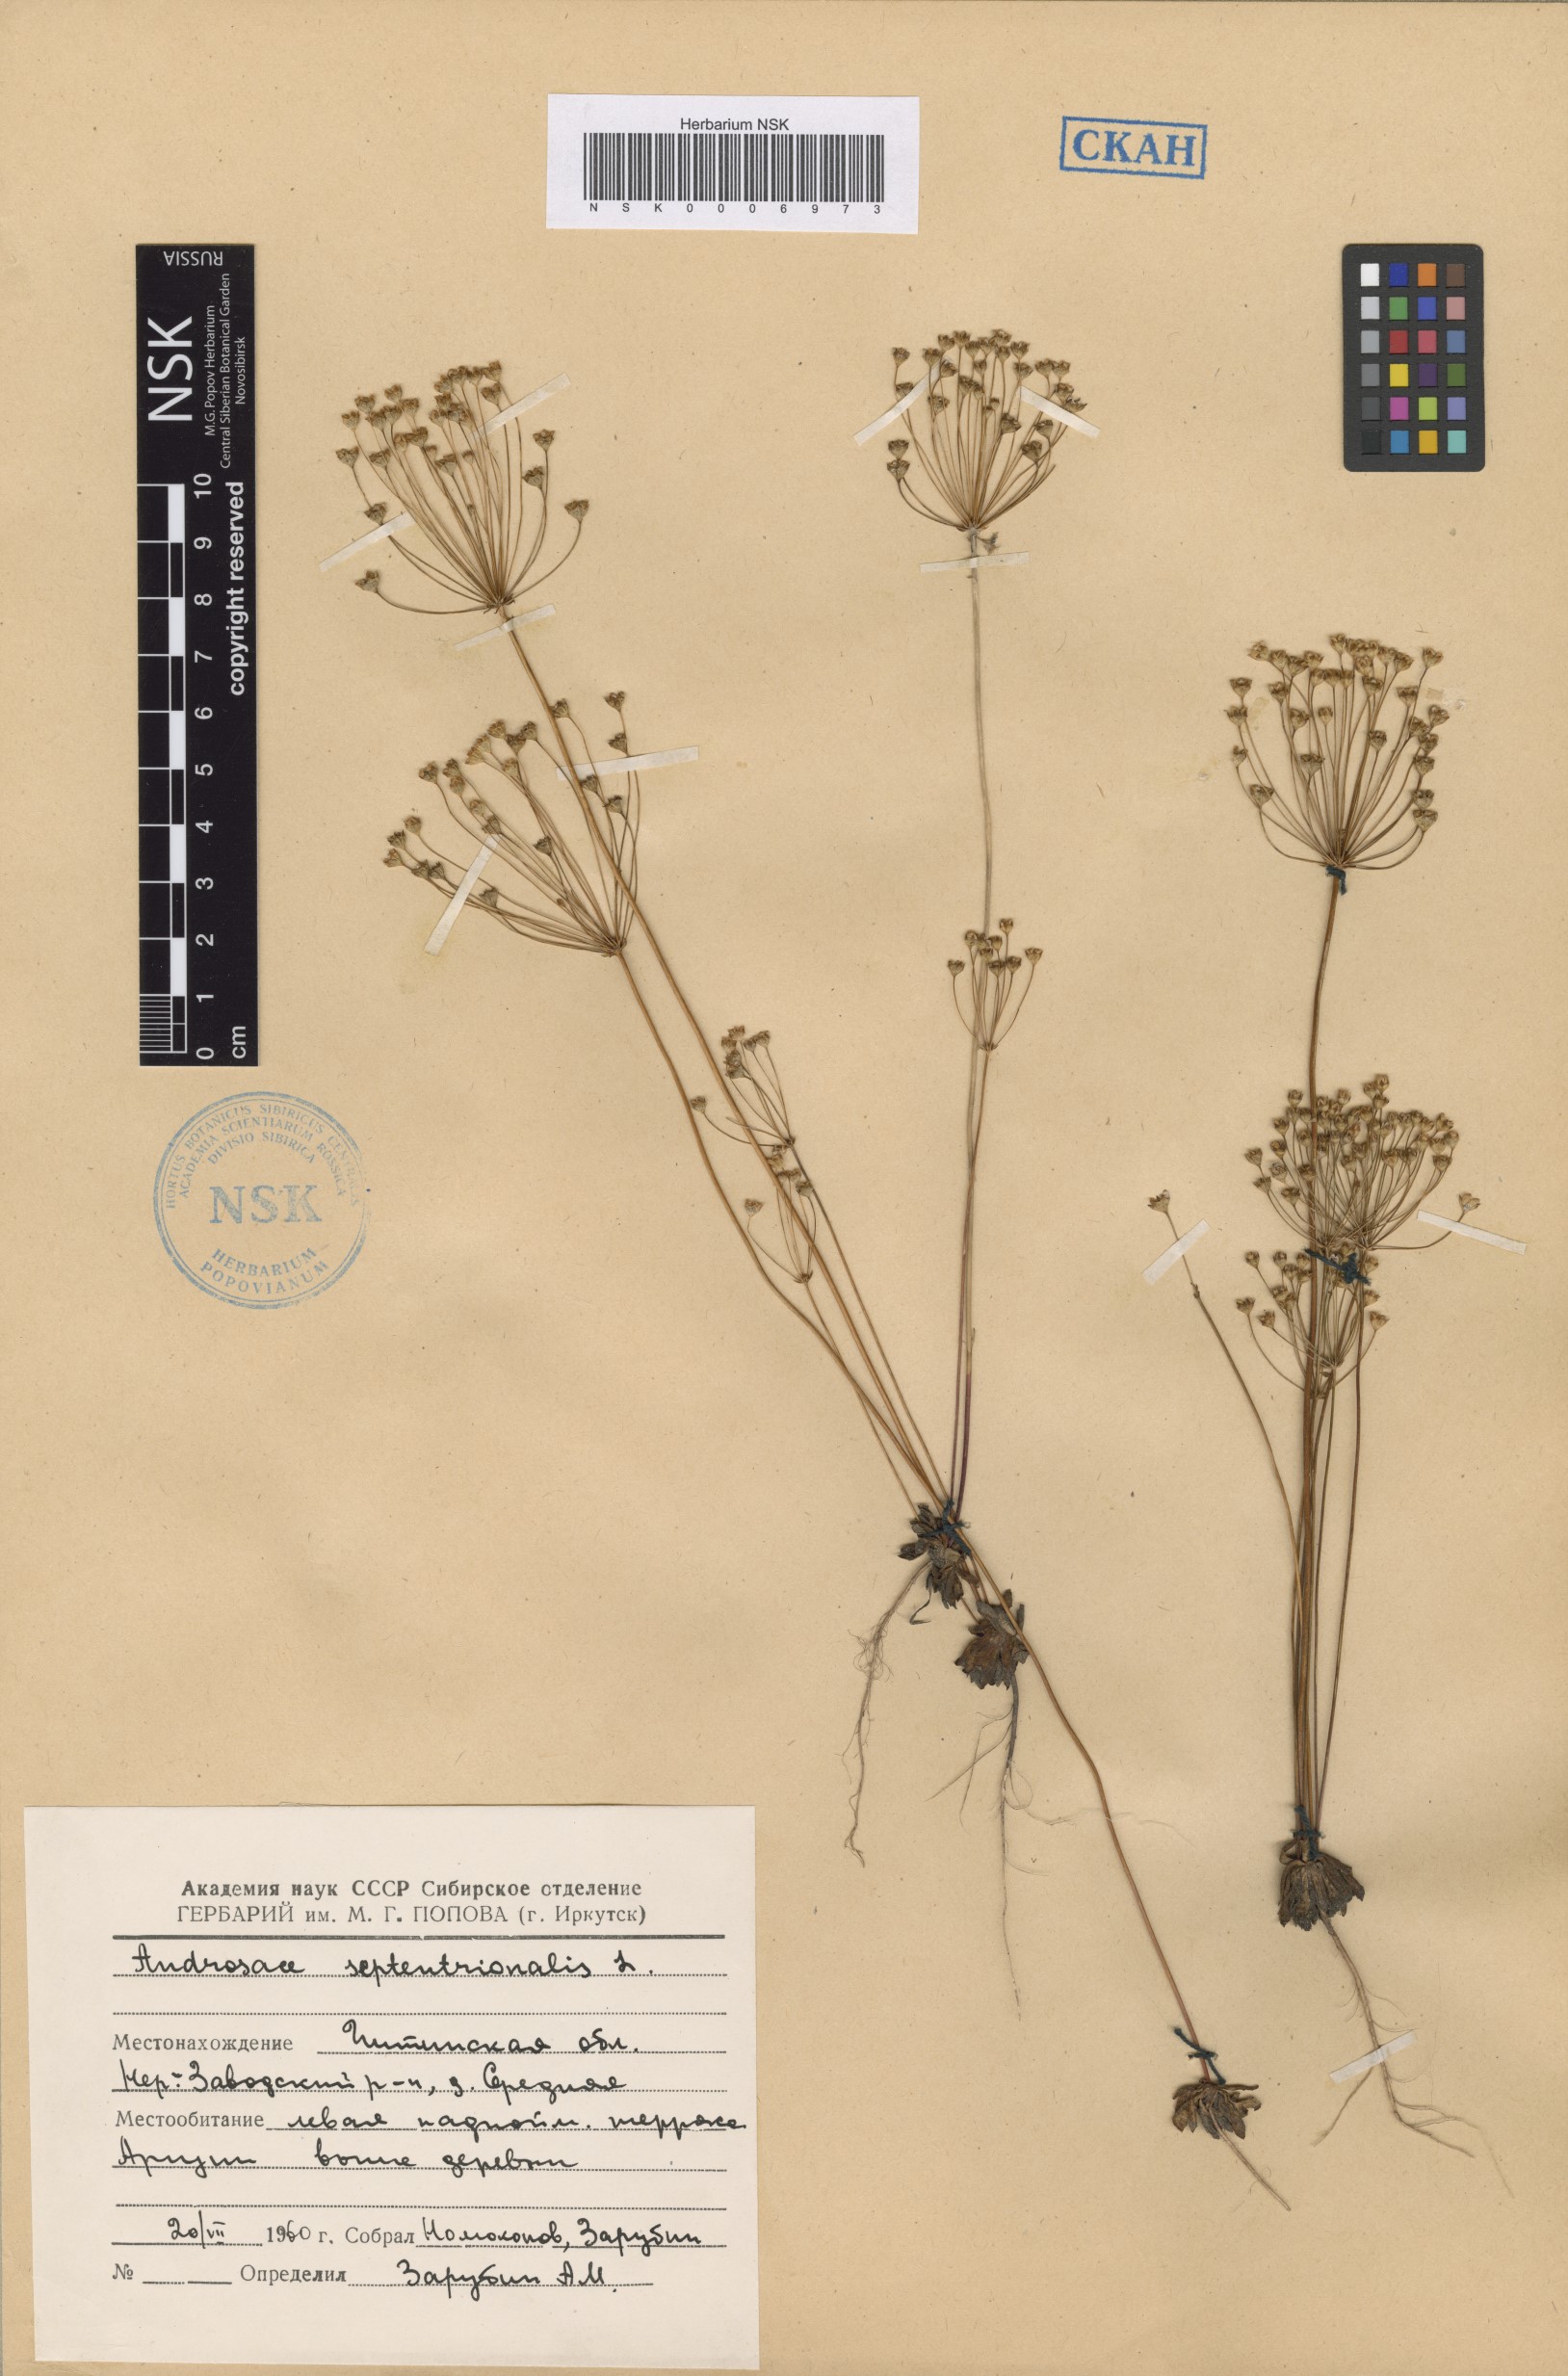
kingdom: Plantae
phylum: Tracheophyta
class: Magnoliopsida
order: Ericales
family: Primulaceae
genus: Androsace
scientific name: Androsace septentrionalis
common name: Hairy northern fairy-candelabra
